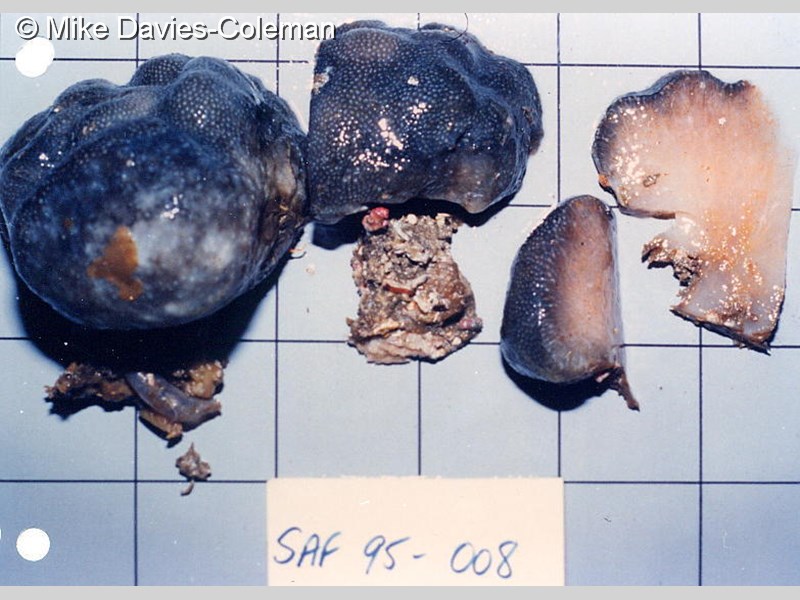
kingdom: Animalia
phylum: Chordata
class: Ascidiacea
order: Aplousobranchia
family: Pseudodistomidae
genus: Pseudodistoma
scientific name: Pseudodistoma
